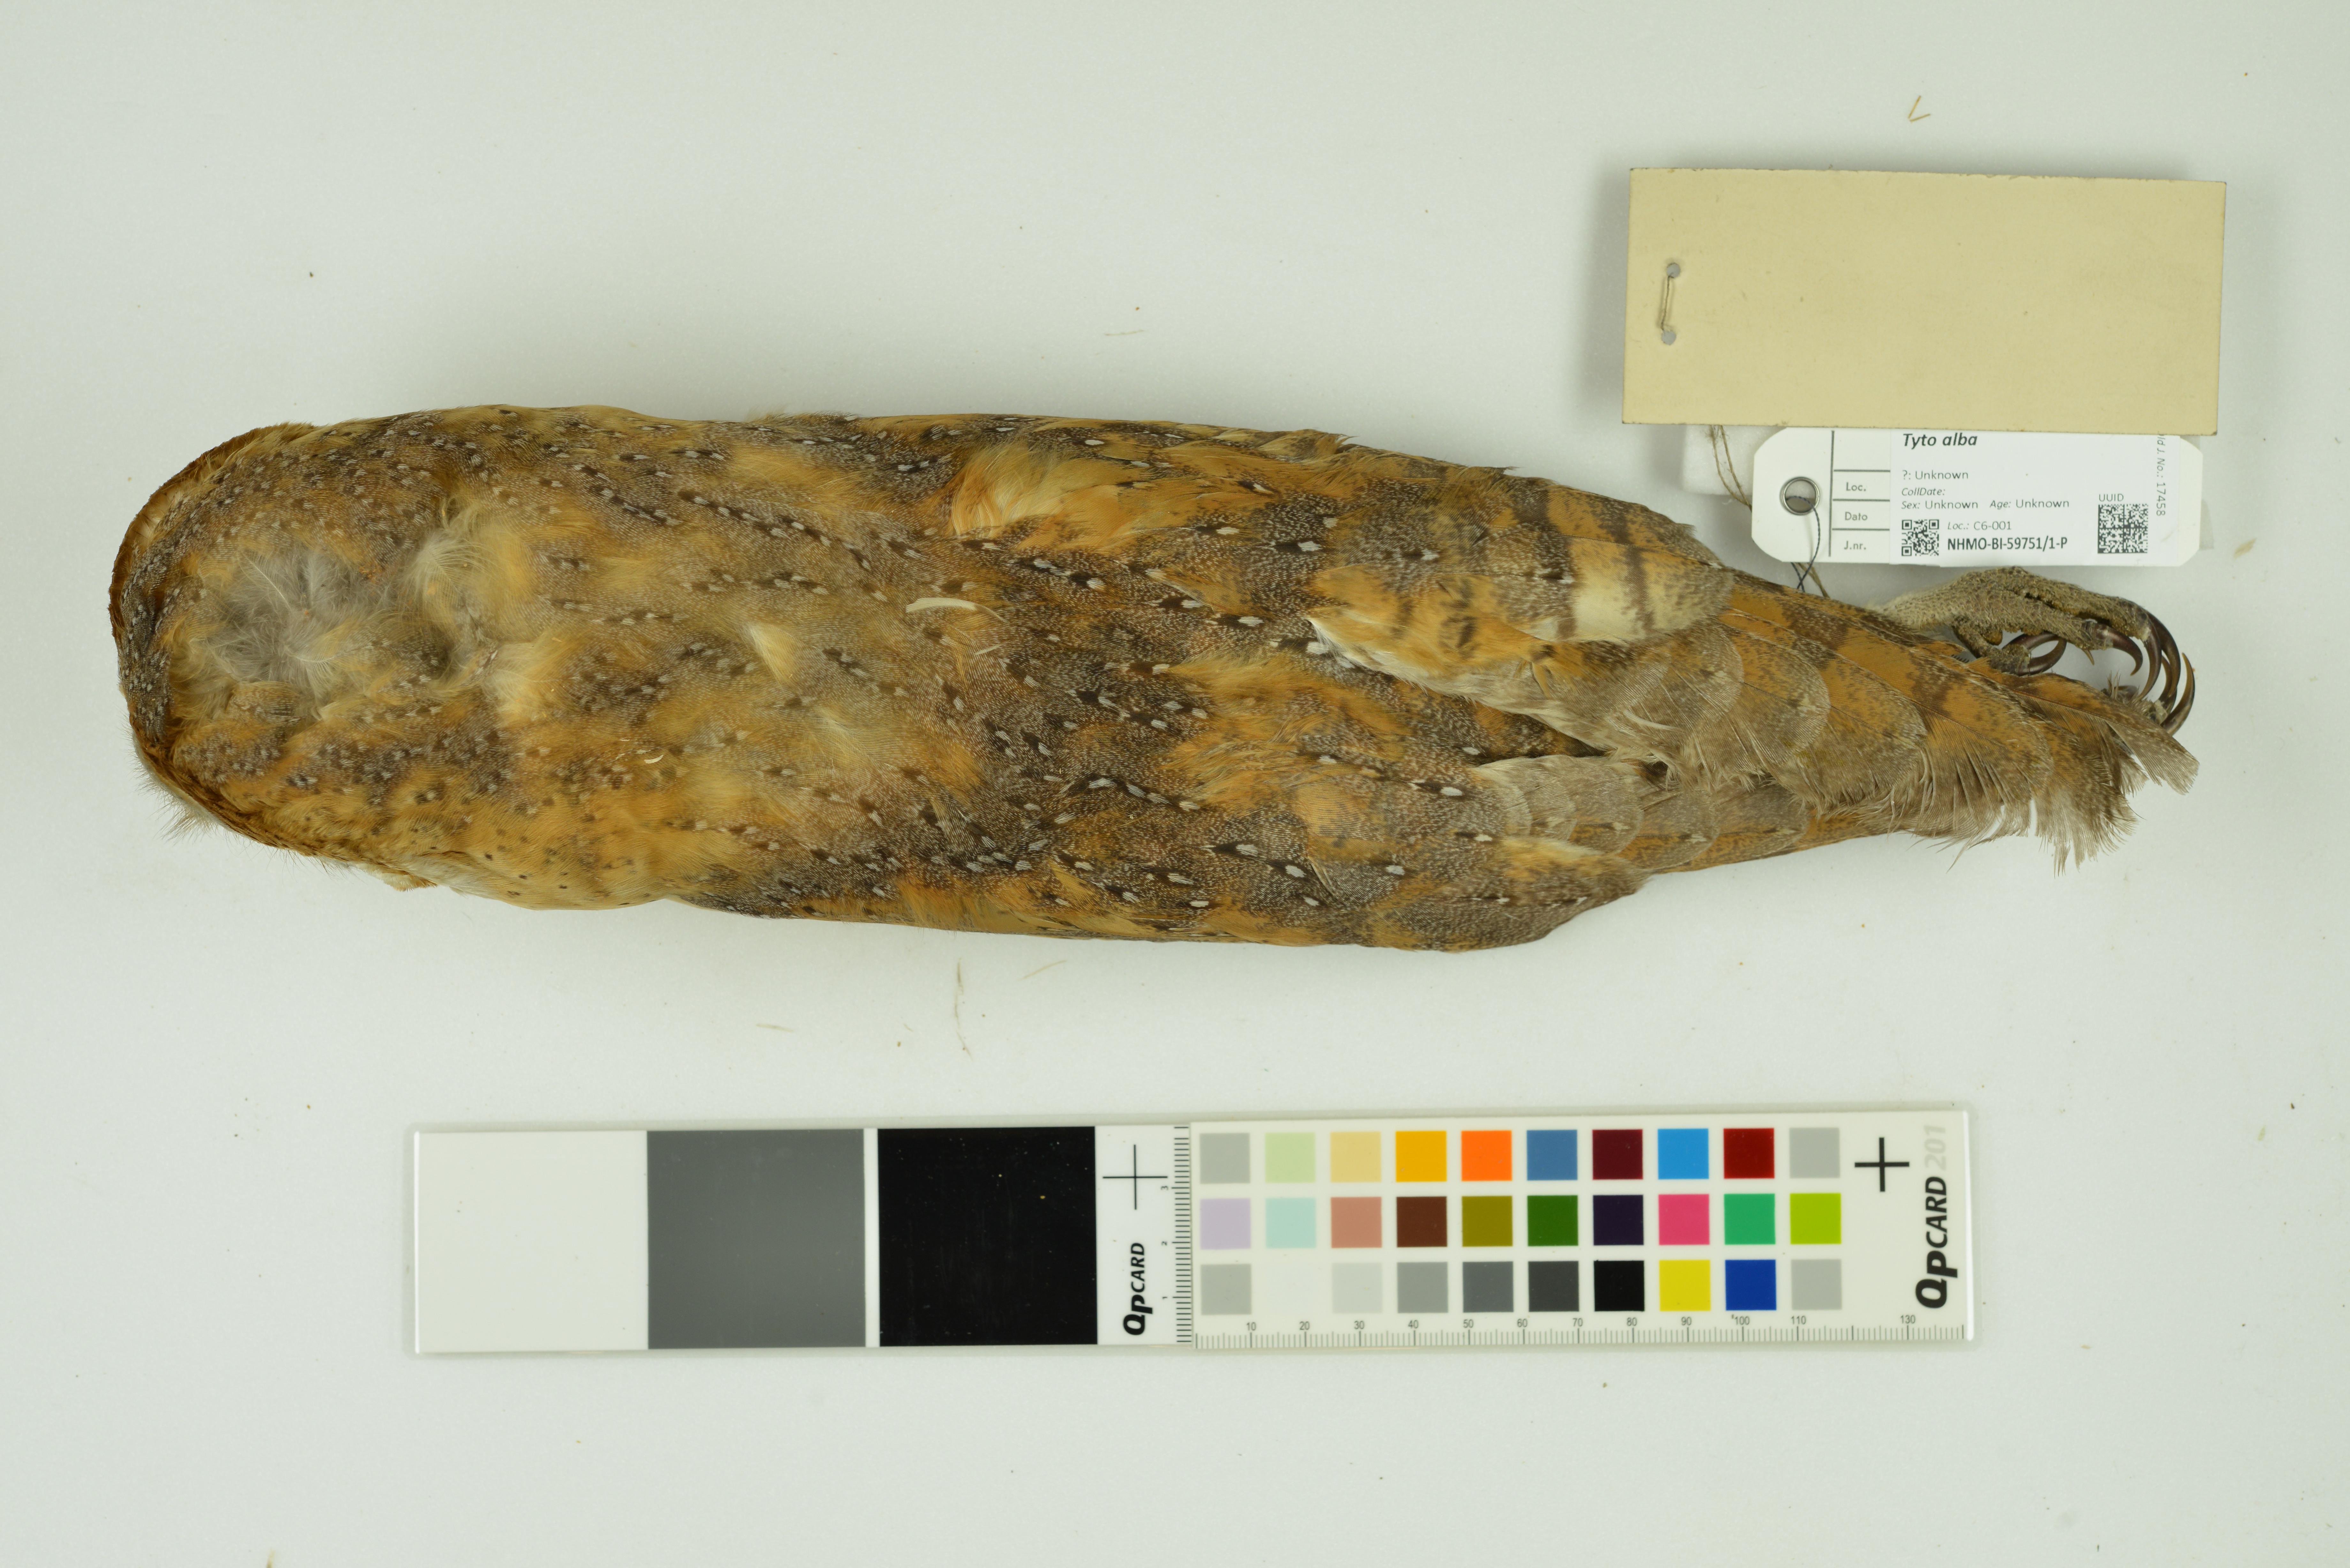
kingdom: Animalia
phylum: Chordata
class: Aves
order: Strigiformes
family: Tytonidae
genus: Tyto
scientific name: Tyto alba
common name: Barn owl
